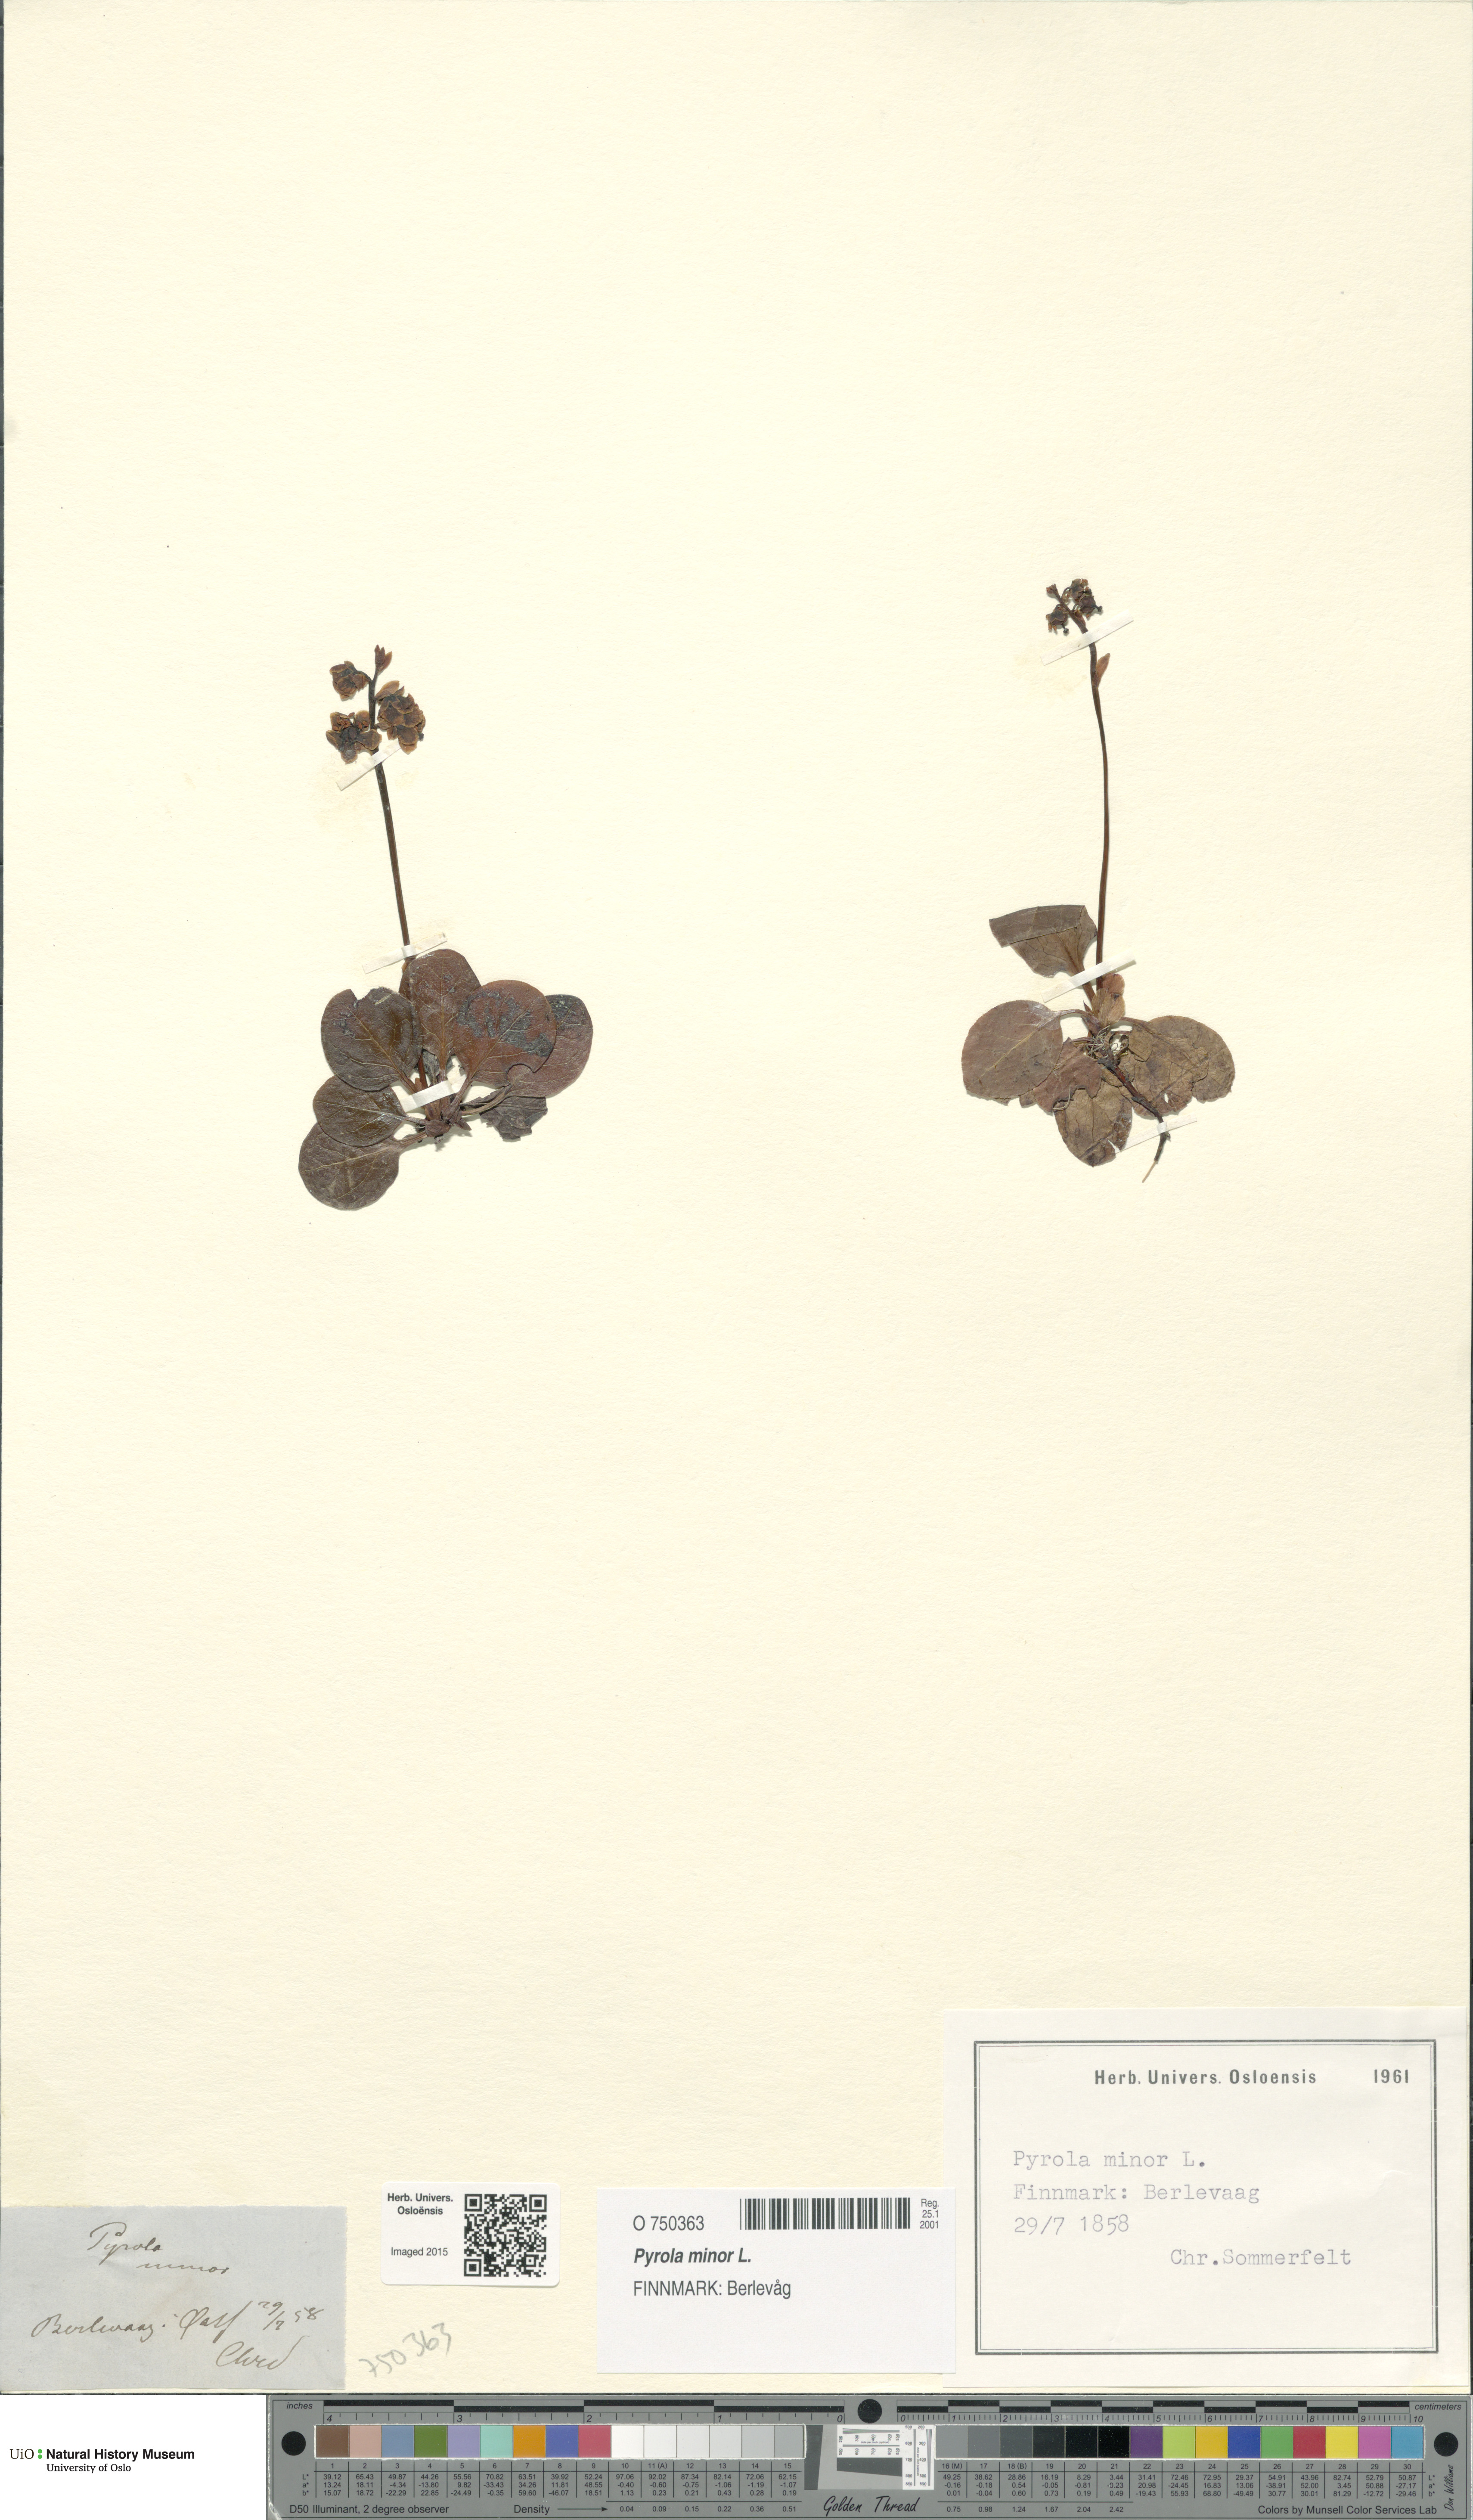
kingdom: Plantae
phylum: Tracheophyta
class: Magnoliopsida
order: Ericales
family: Ericaceae
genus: Pyrola
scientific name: Pyrola minor
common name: Common wintergreen
